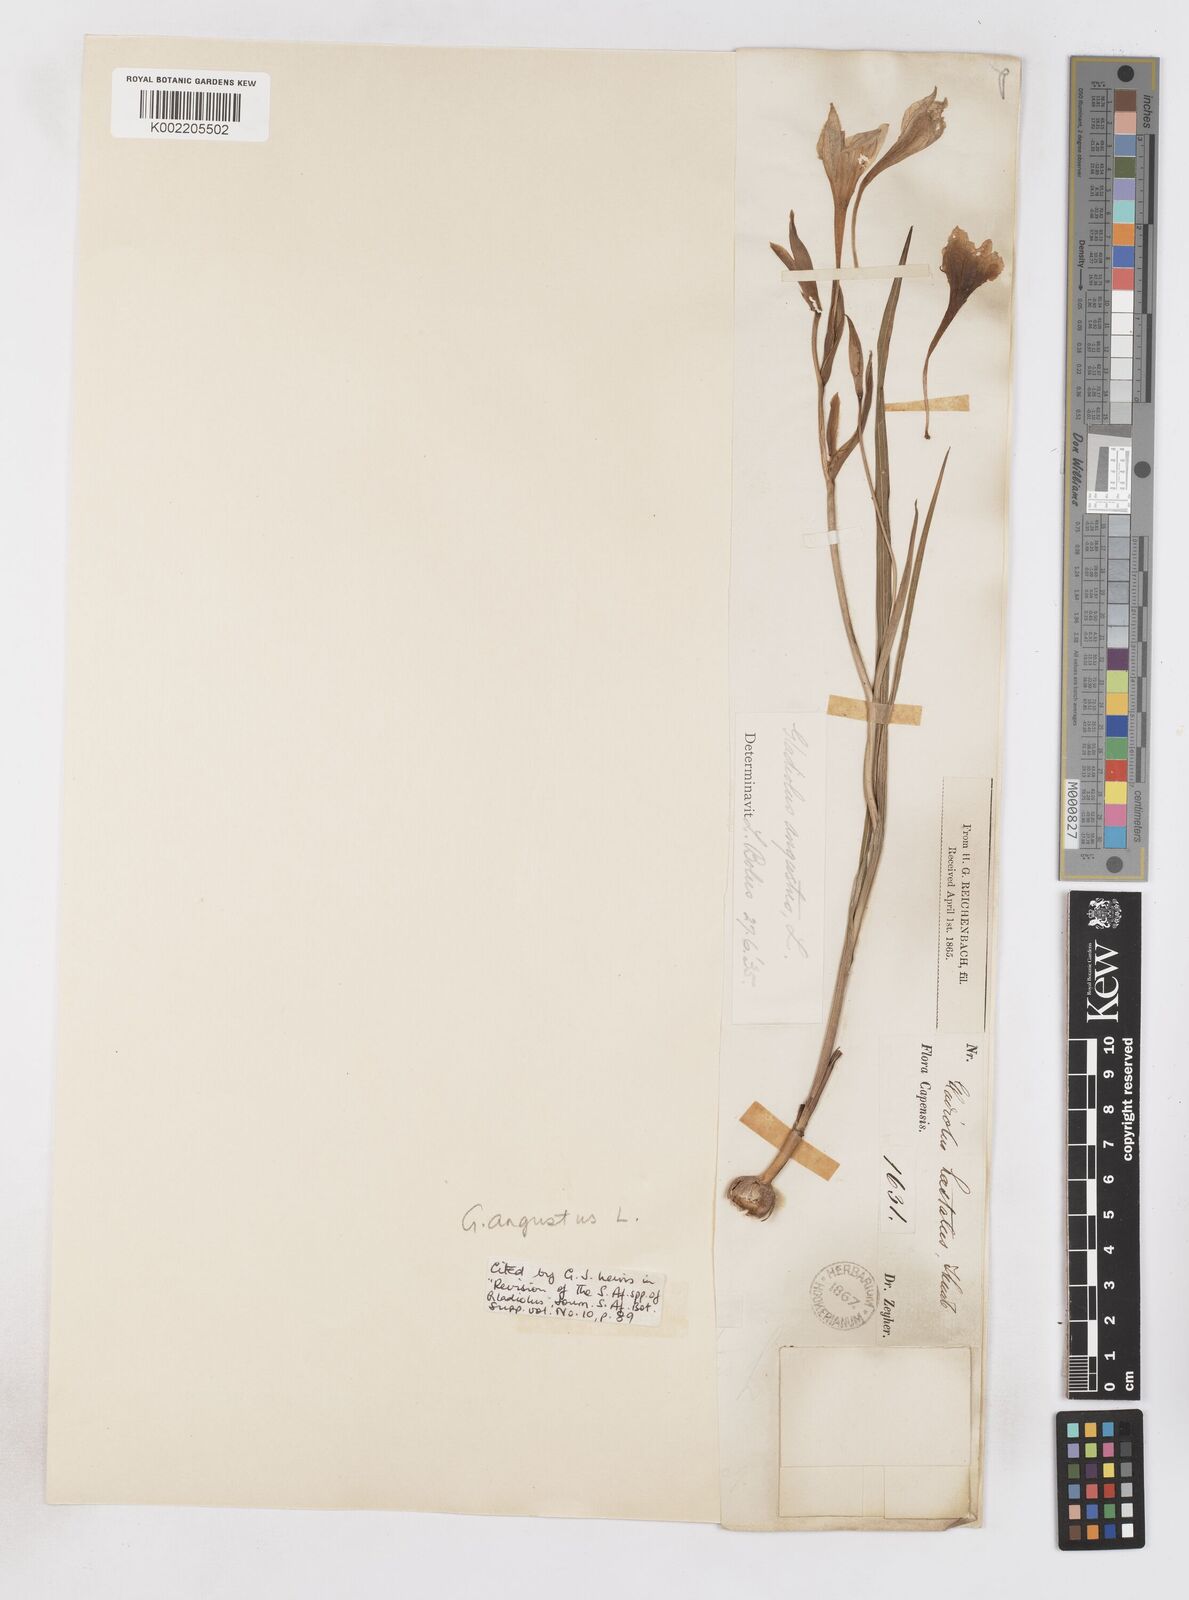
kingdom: Plantae
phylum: Tracheophyta
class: Liliopsida
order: Asparagales
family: Iridaceae
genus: Gladiolus
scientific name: Gladiolus angustus
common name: Painted-lady
